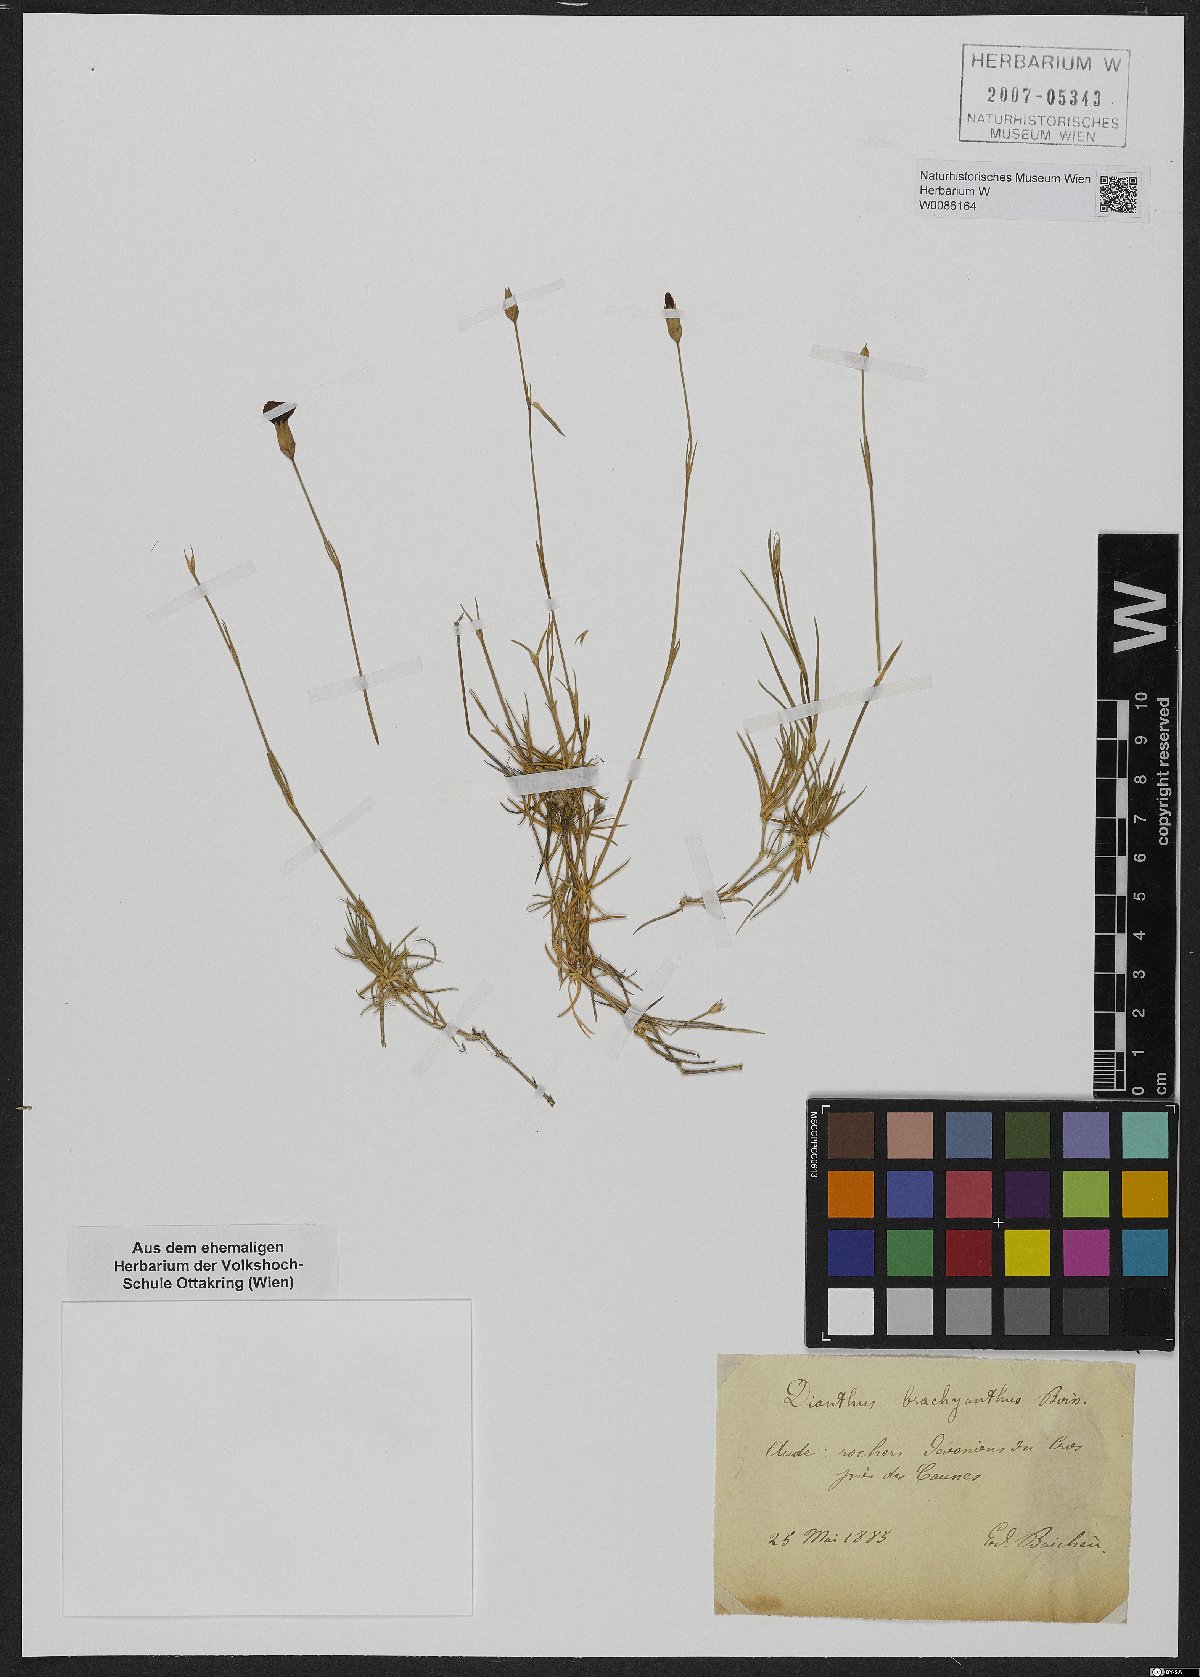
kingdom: Plantae
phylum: Tracheophyta
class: Magnoliopsida
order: Caryophyllales
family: Caryophyllaceae
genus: Dianthus
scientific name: Dianthus pungens
